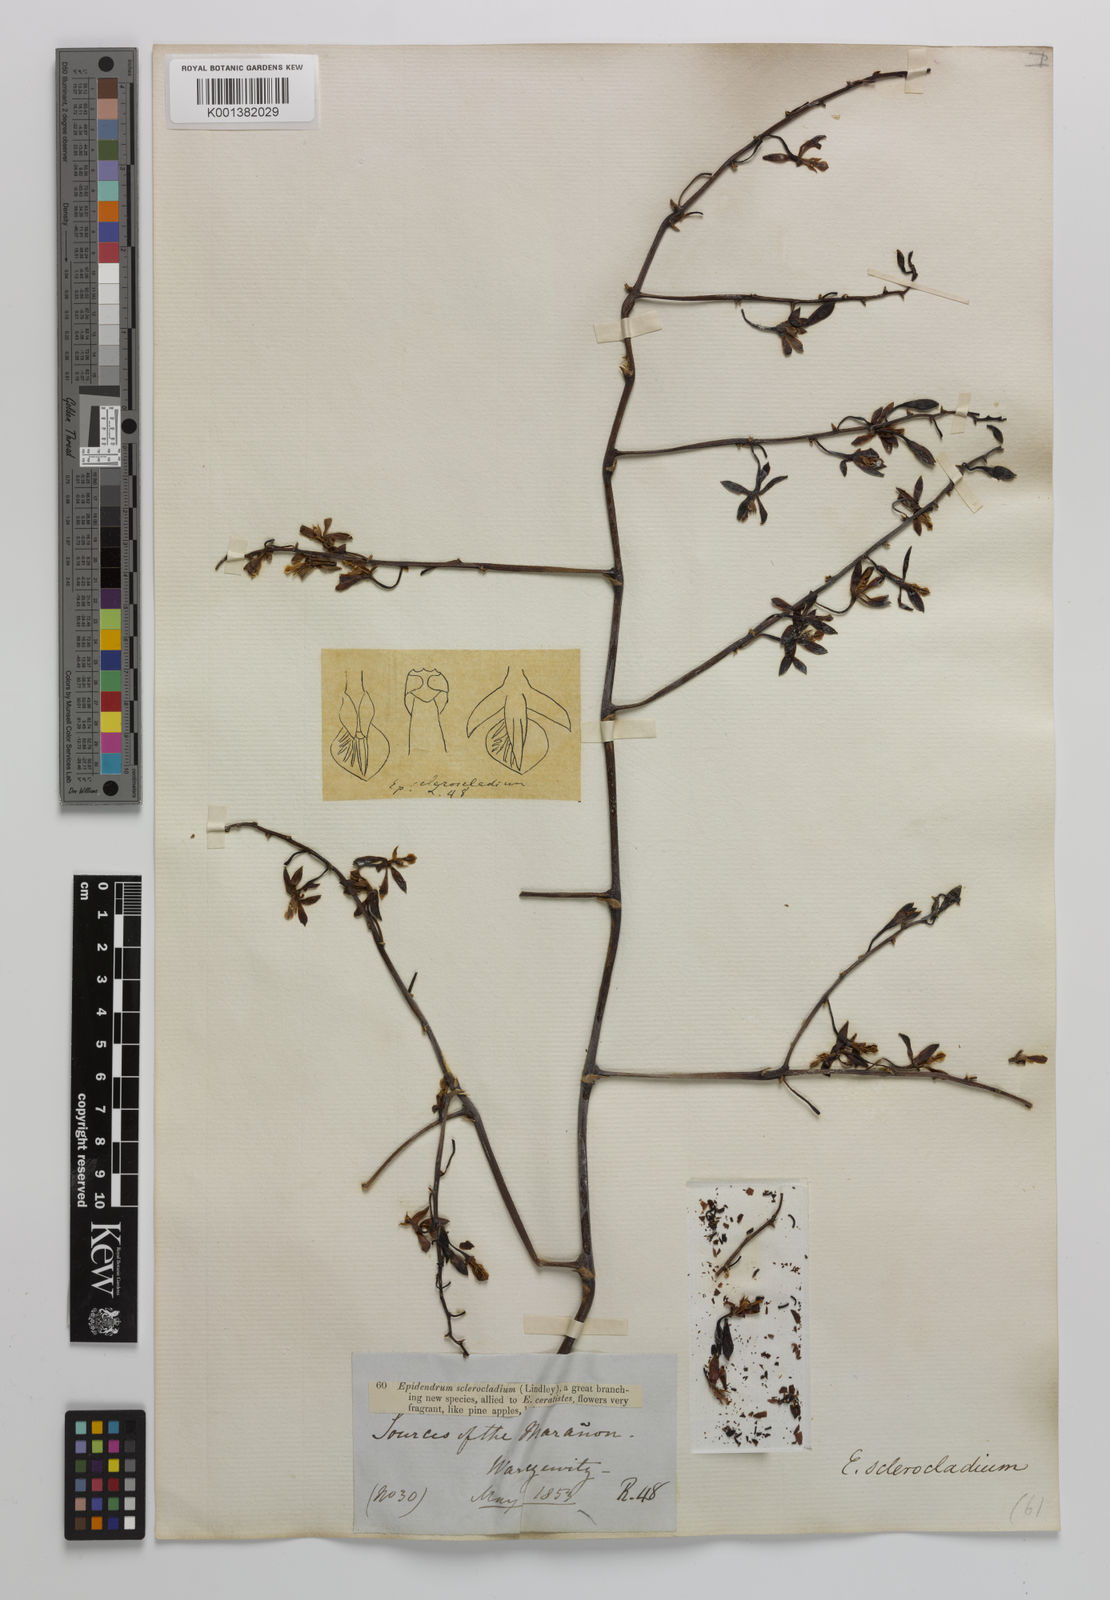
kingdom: Plantae
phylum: Tracheophyta
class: Liliopsida
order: Asparagales
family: Orchidaceae
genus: Encyclia
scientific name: Encyclia sclerocladia
